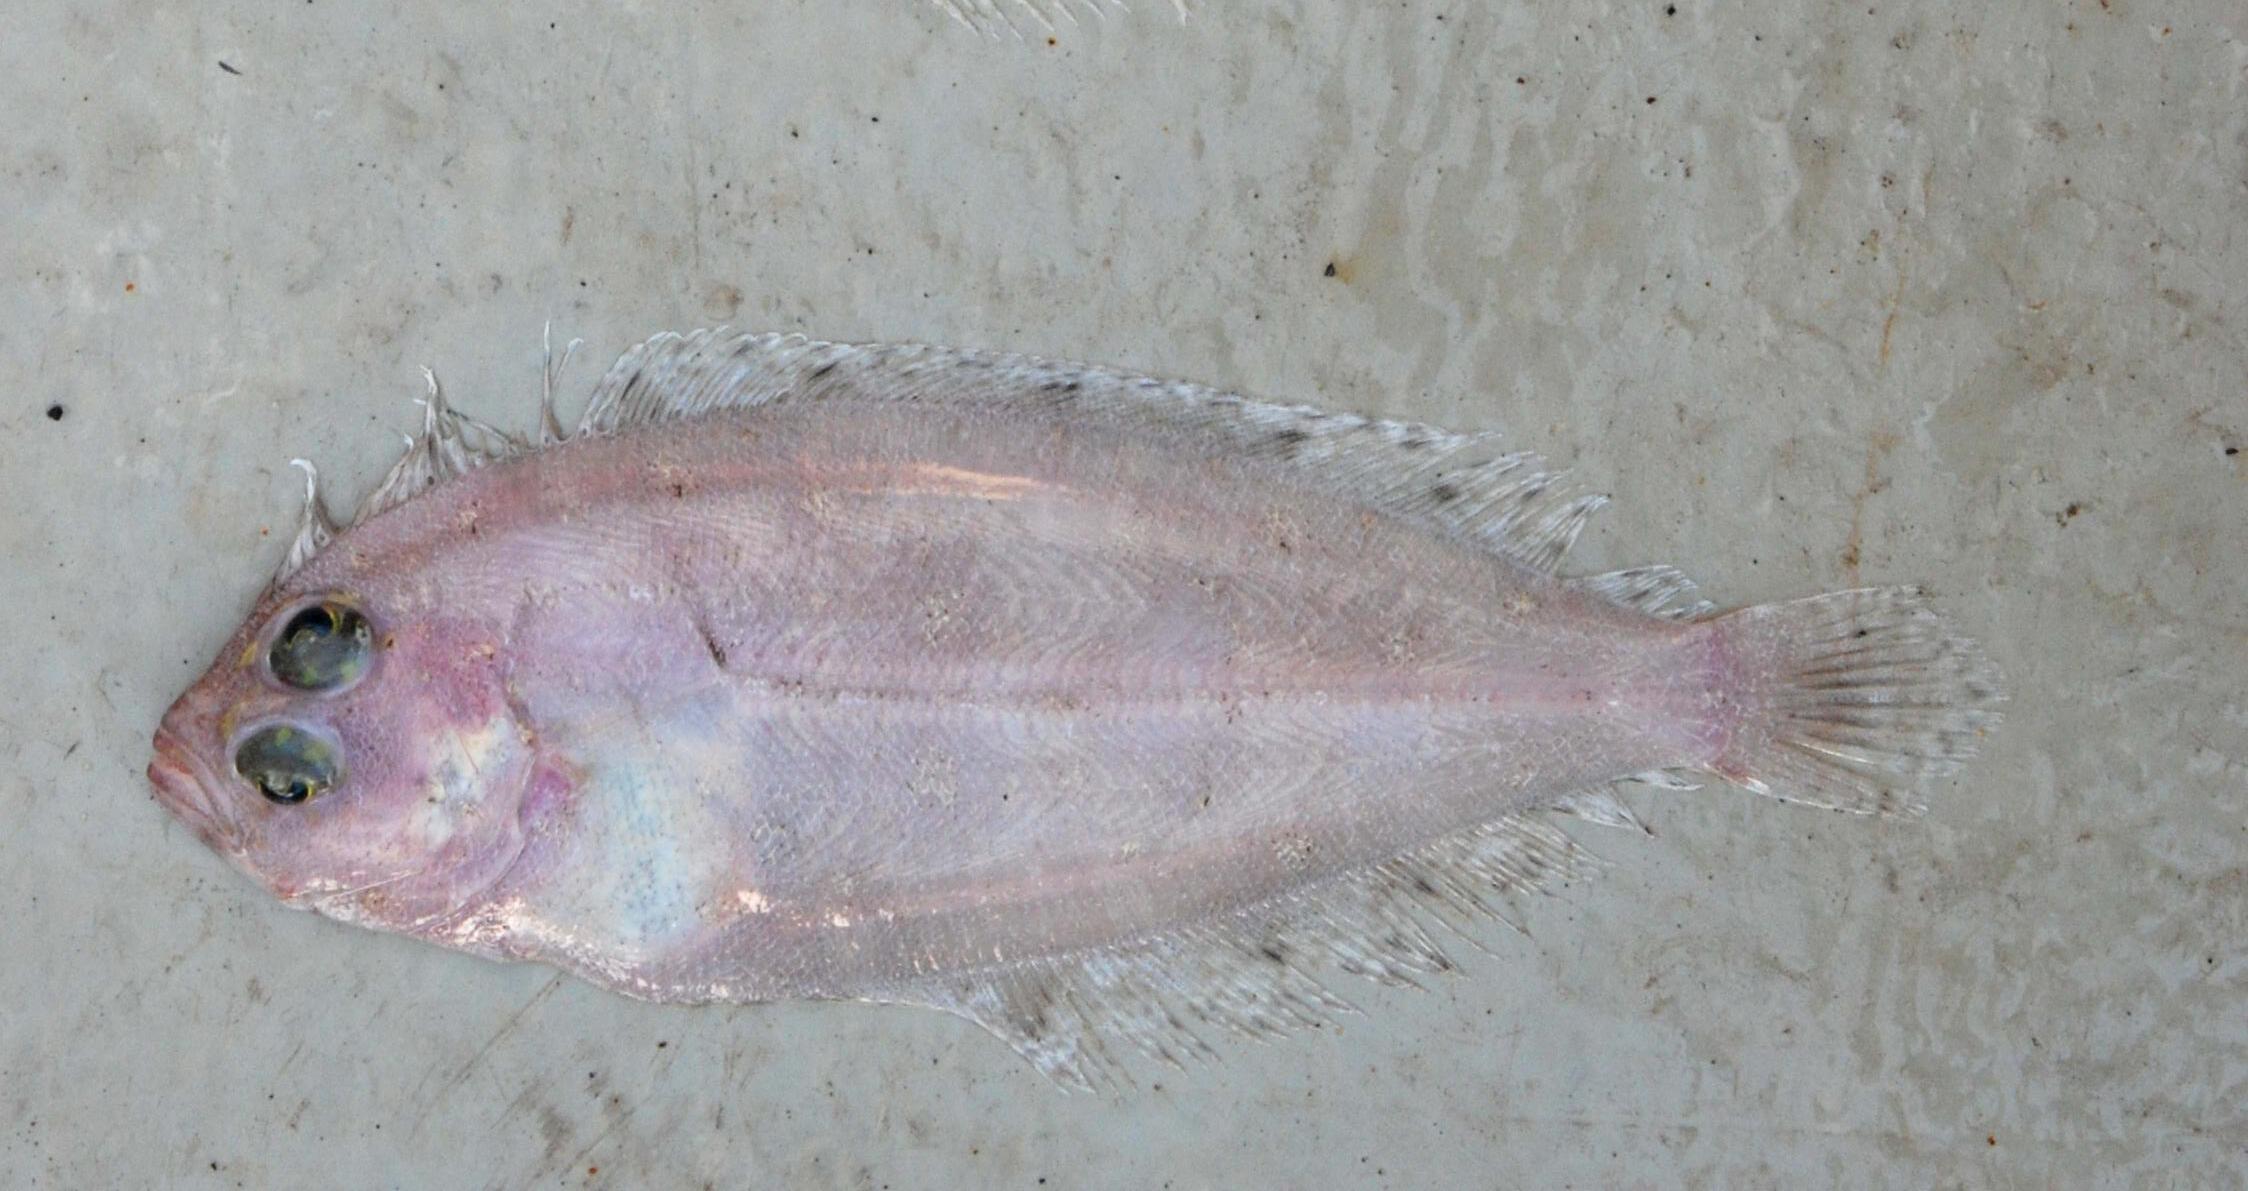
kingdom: Animalia
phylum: Chordata
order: Pleuronectiformes
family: Bothidae
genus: Arnoglossus
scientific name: Arnoglossus
